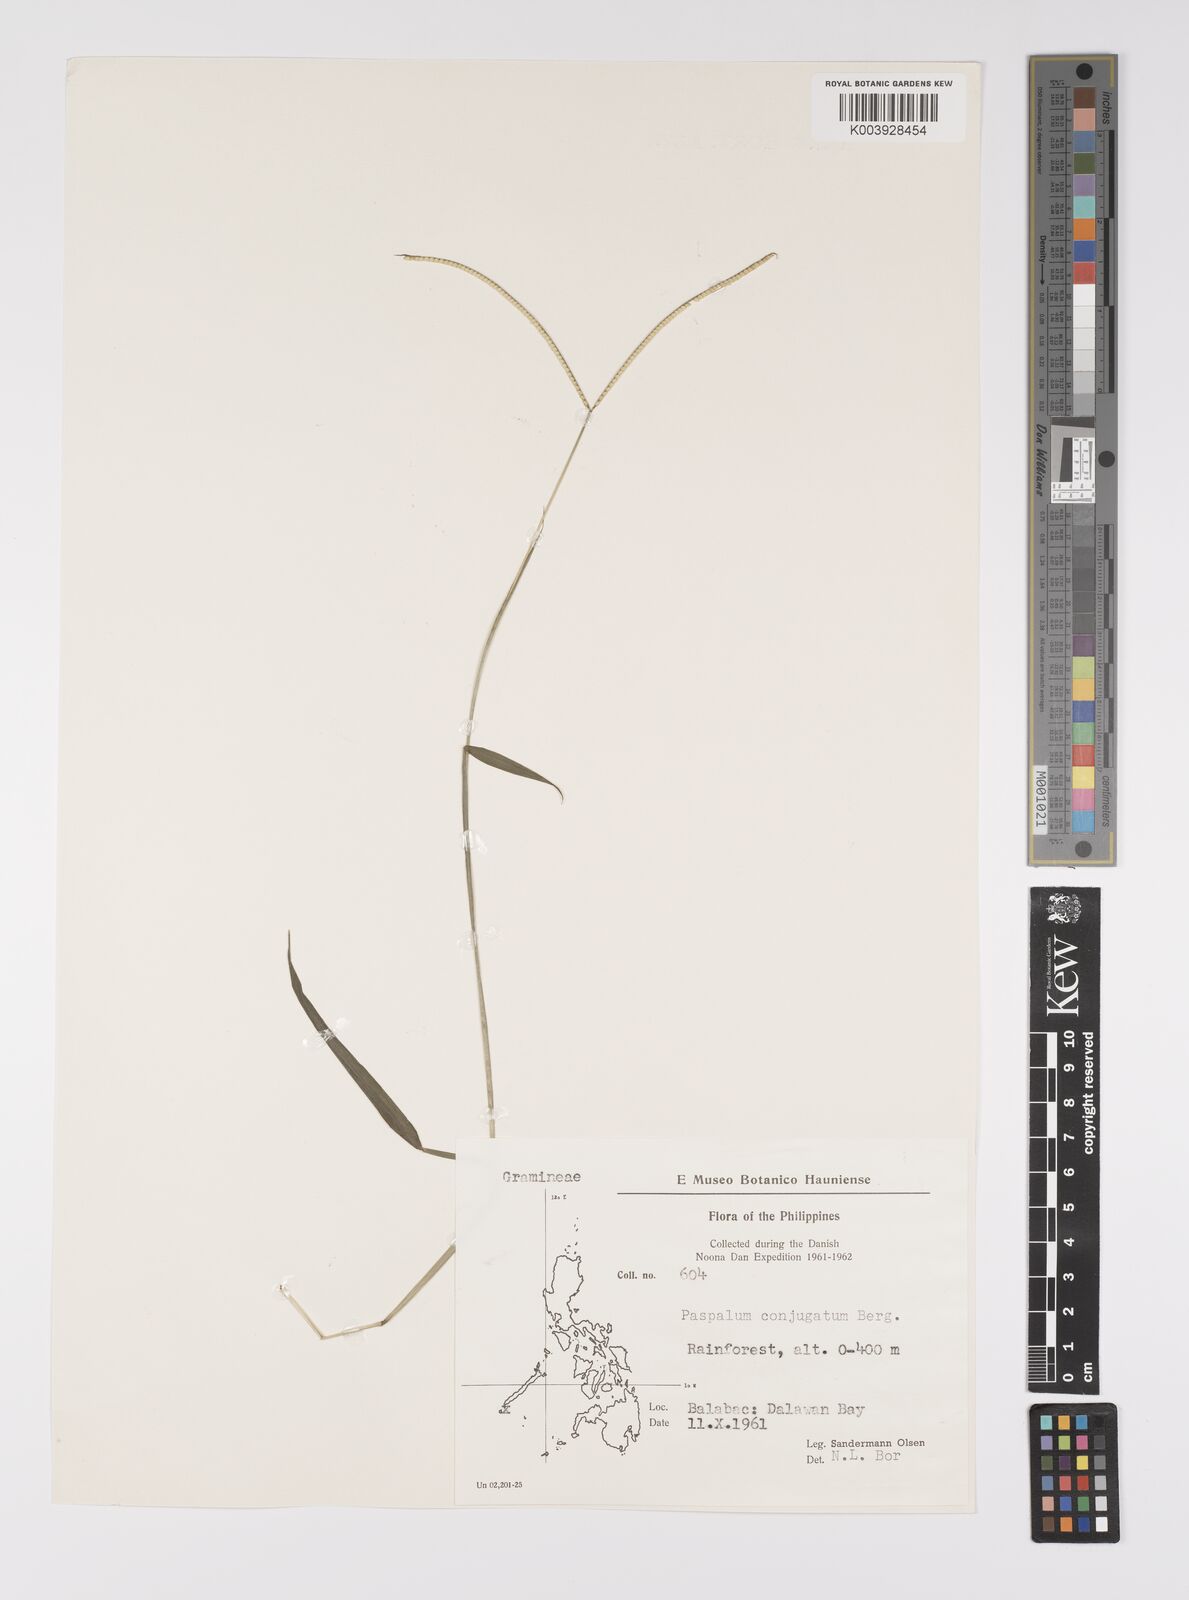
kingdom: Plantae
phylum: Tracheophyta
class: Liliopsida
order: Poales
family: Poaceae
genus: Paspalum
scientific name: Paspalum conjugatum
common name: Hilograss
